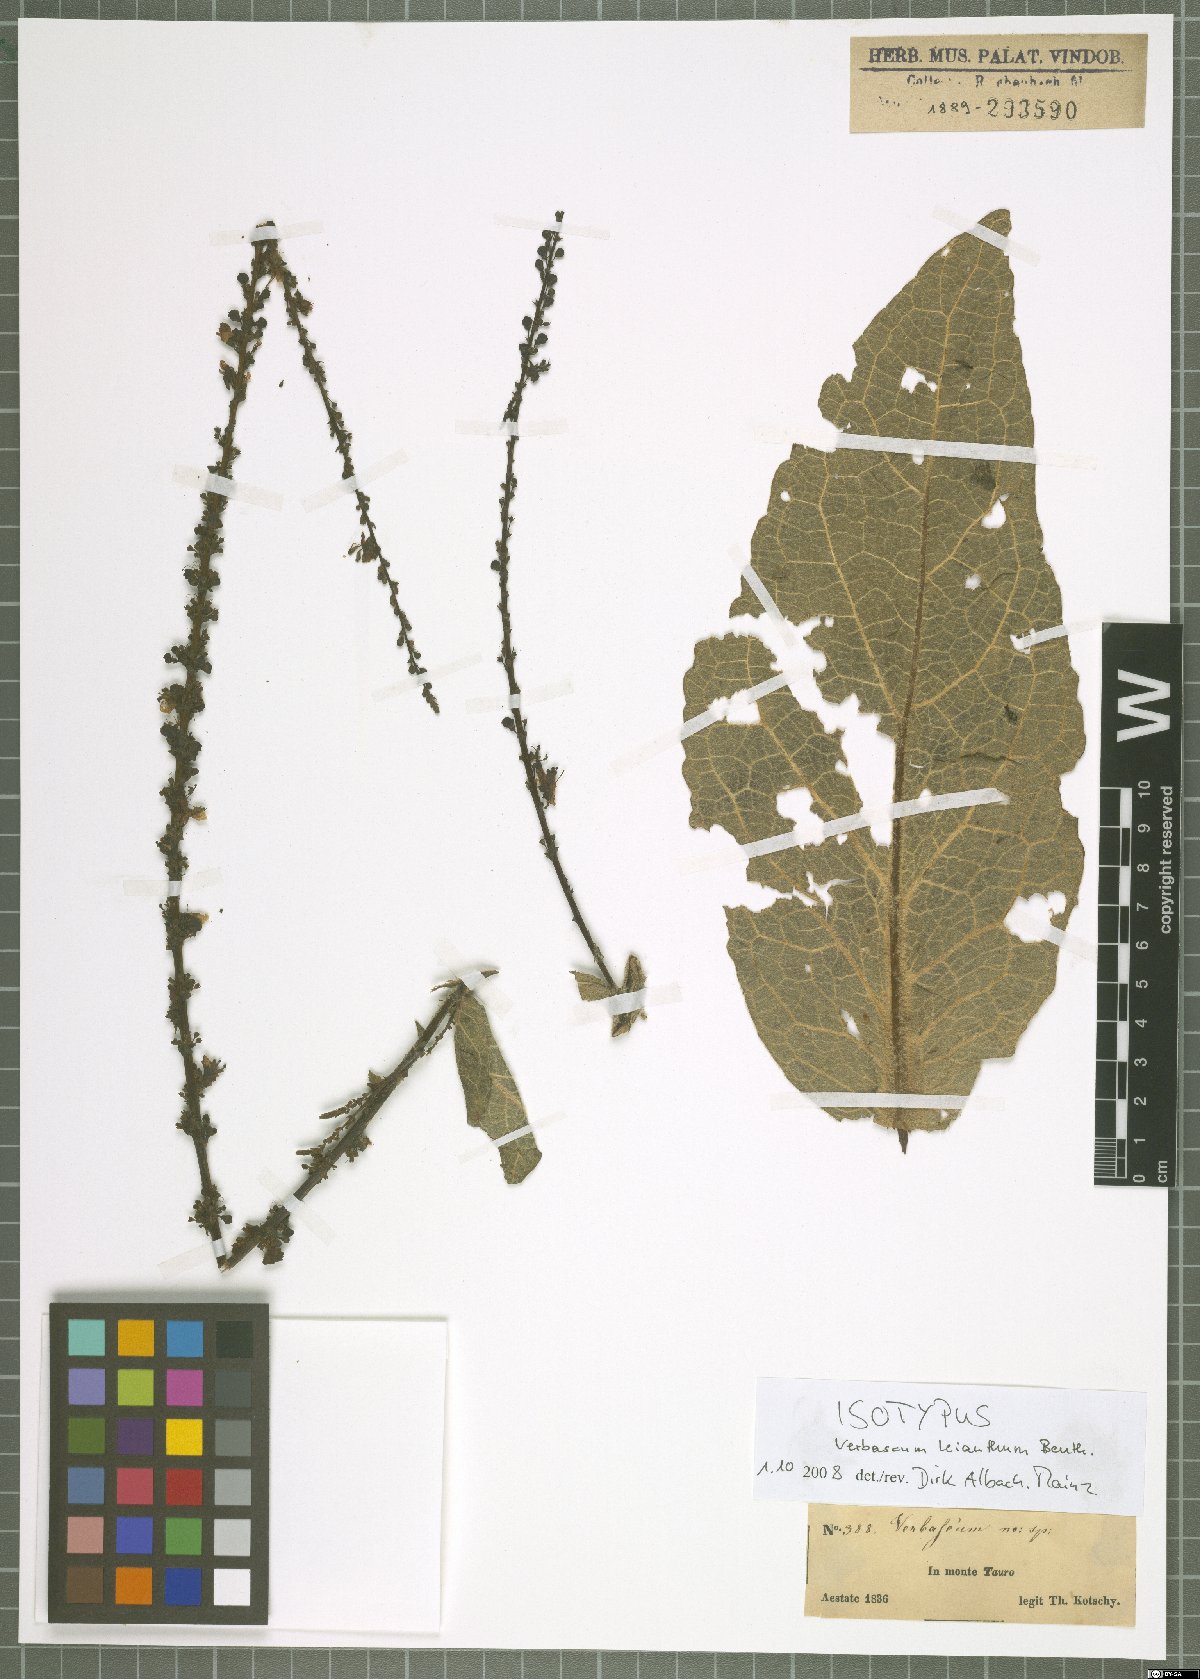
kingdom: Plantae
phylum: Tracheophyta
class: Magnoliopsida
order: Lamiales
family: Scrophulariaceae
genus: Verbascum
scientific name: Verbascum leianthum
